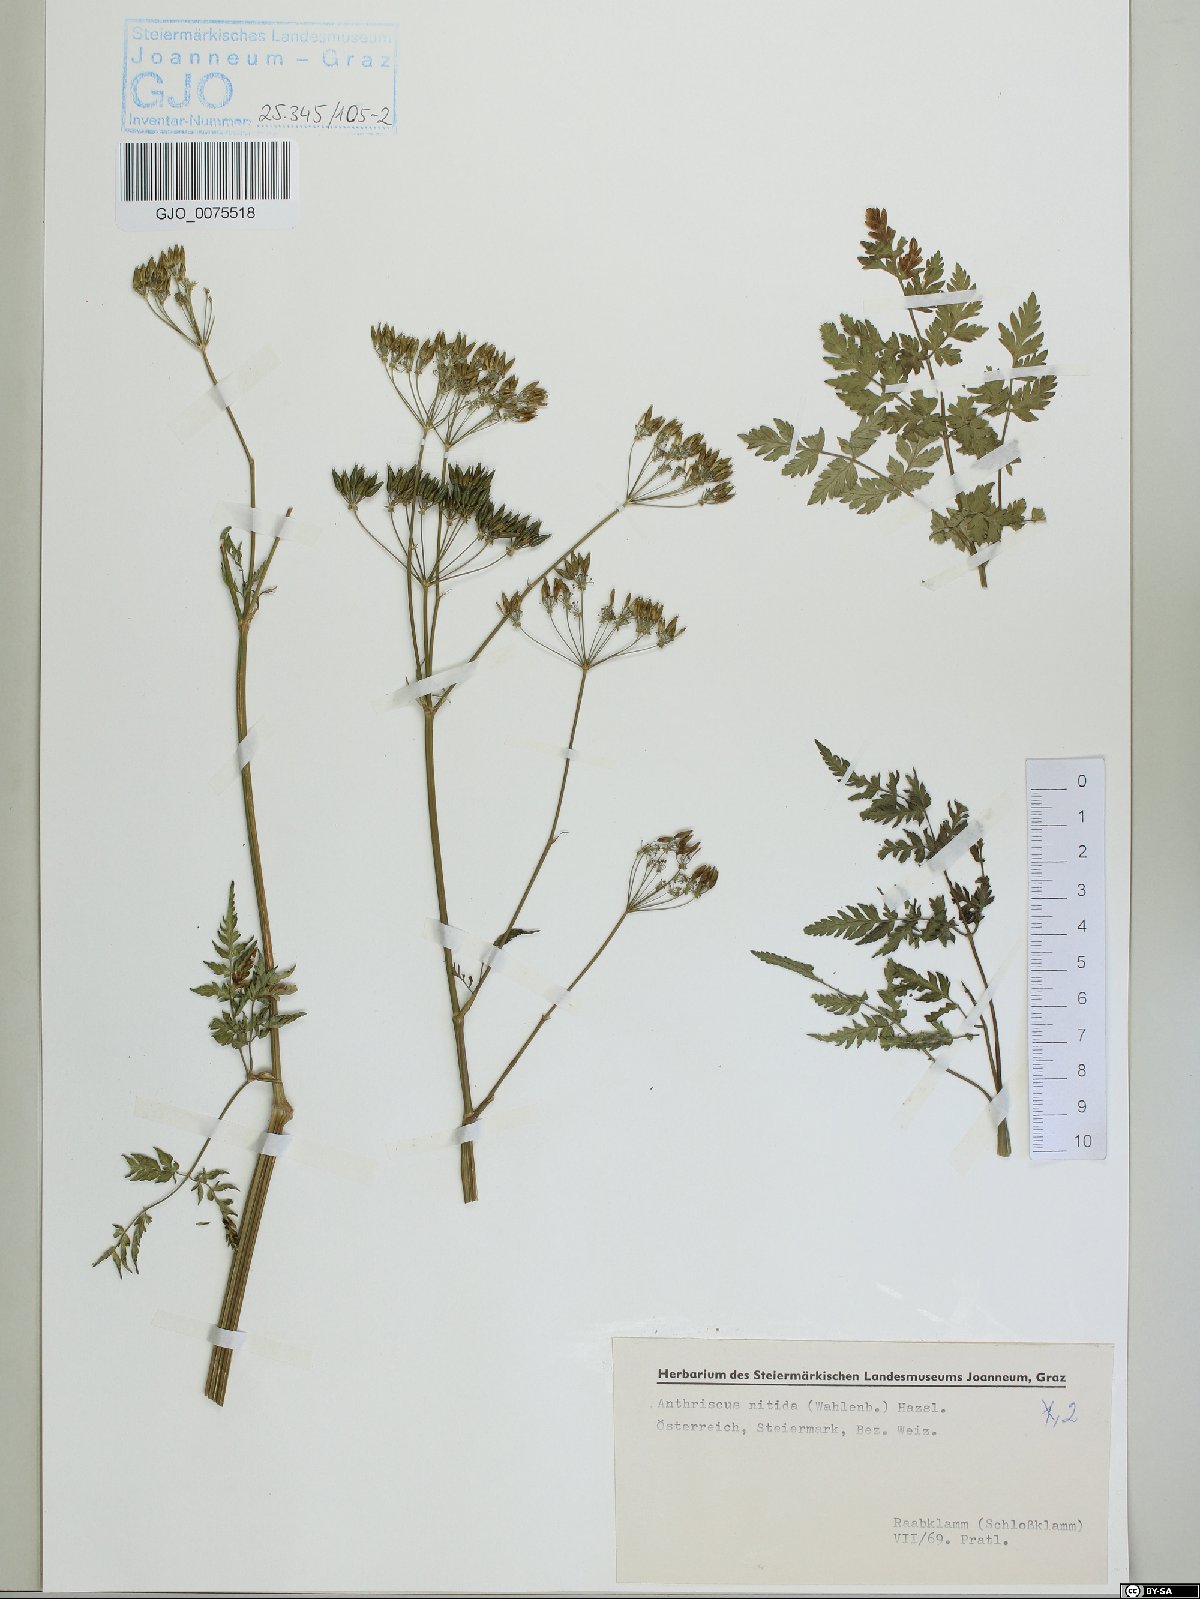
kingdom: Plantae
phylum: Tracheophyta
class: Magnoliopsida
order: Apiales
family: Apiaceae
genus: Anthriscus
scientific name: Anthriscus nitida
